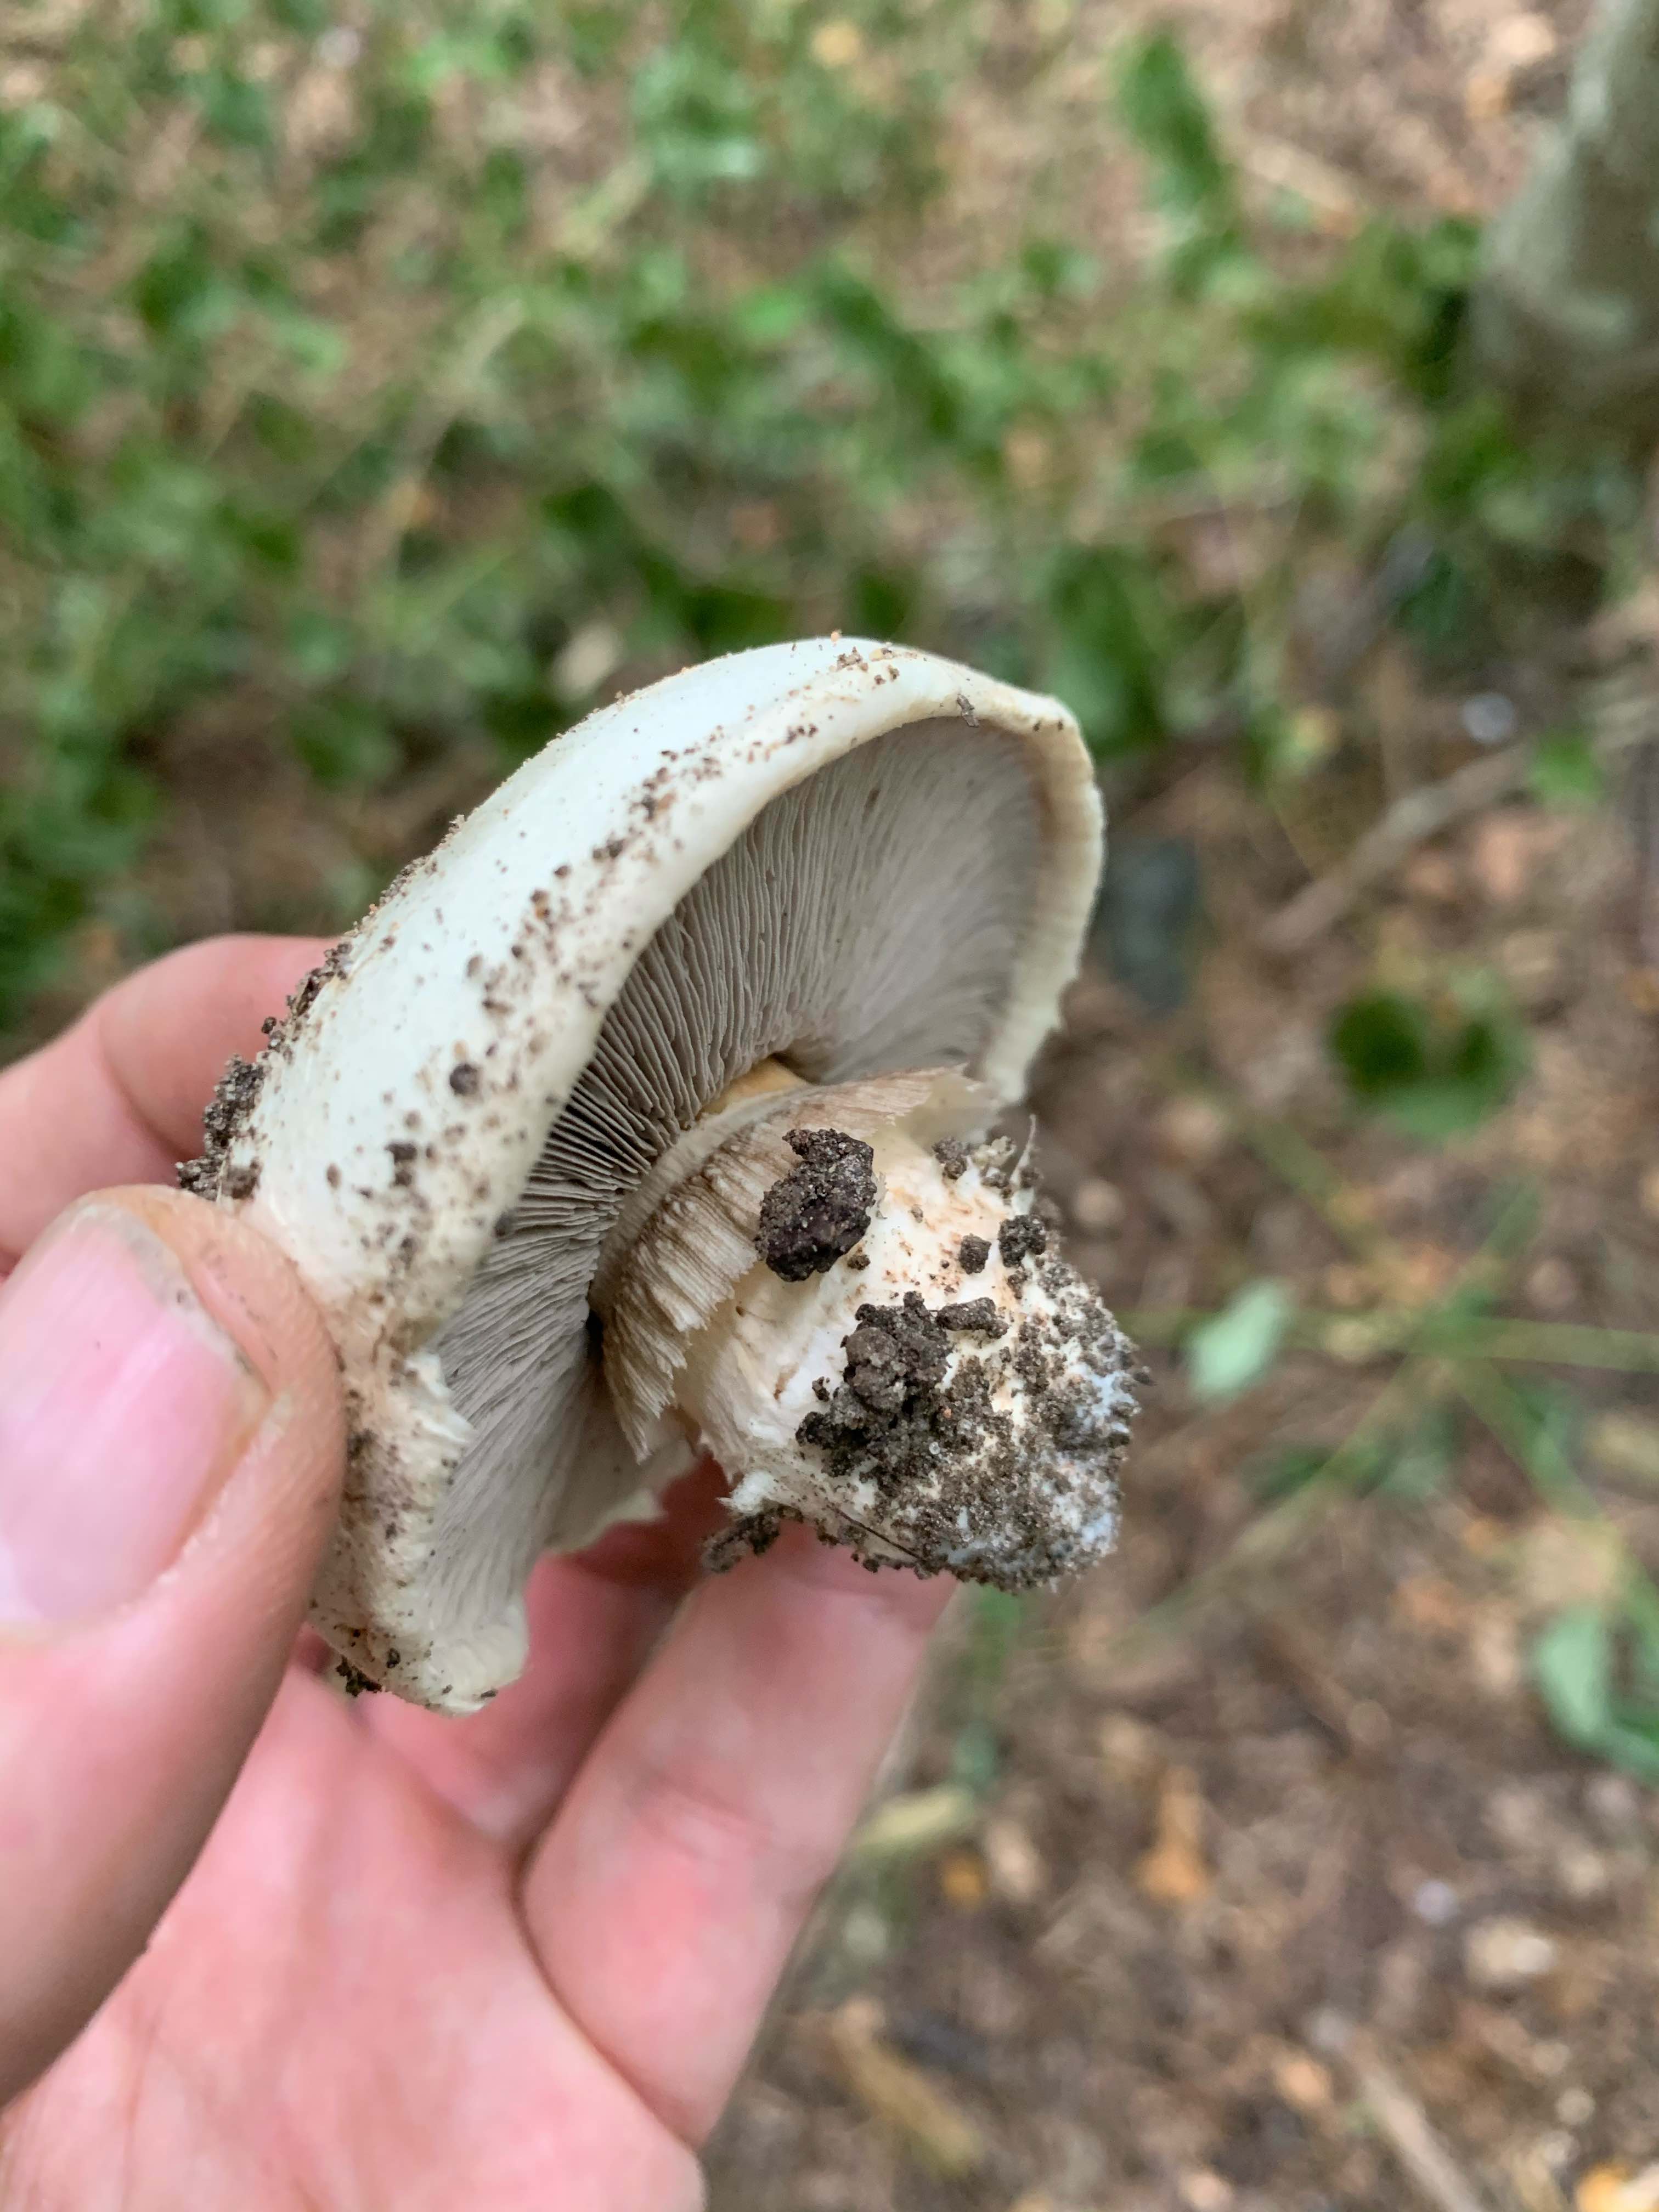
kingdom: Fungi
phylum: Basidiomycota
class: Agaricomycetes
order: Agaricales
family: Agaricaceae
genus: Agaricus
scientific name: Agaricus
